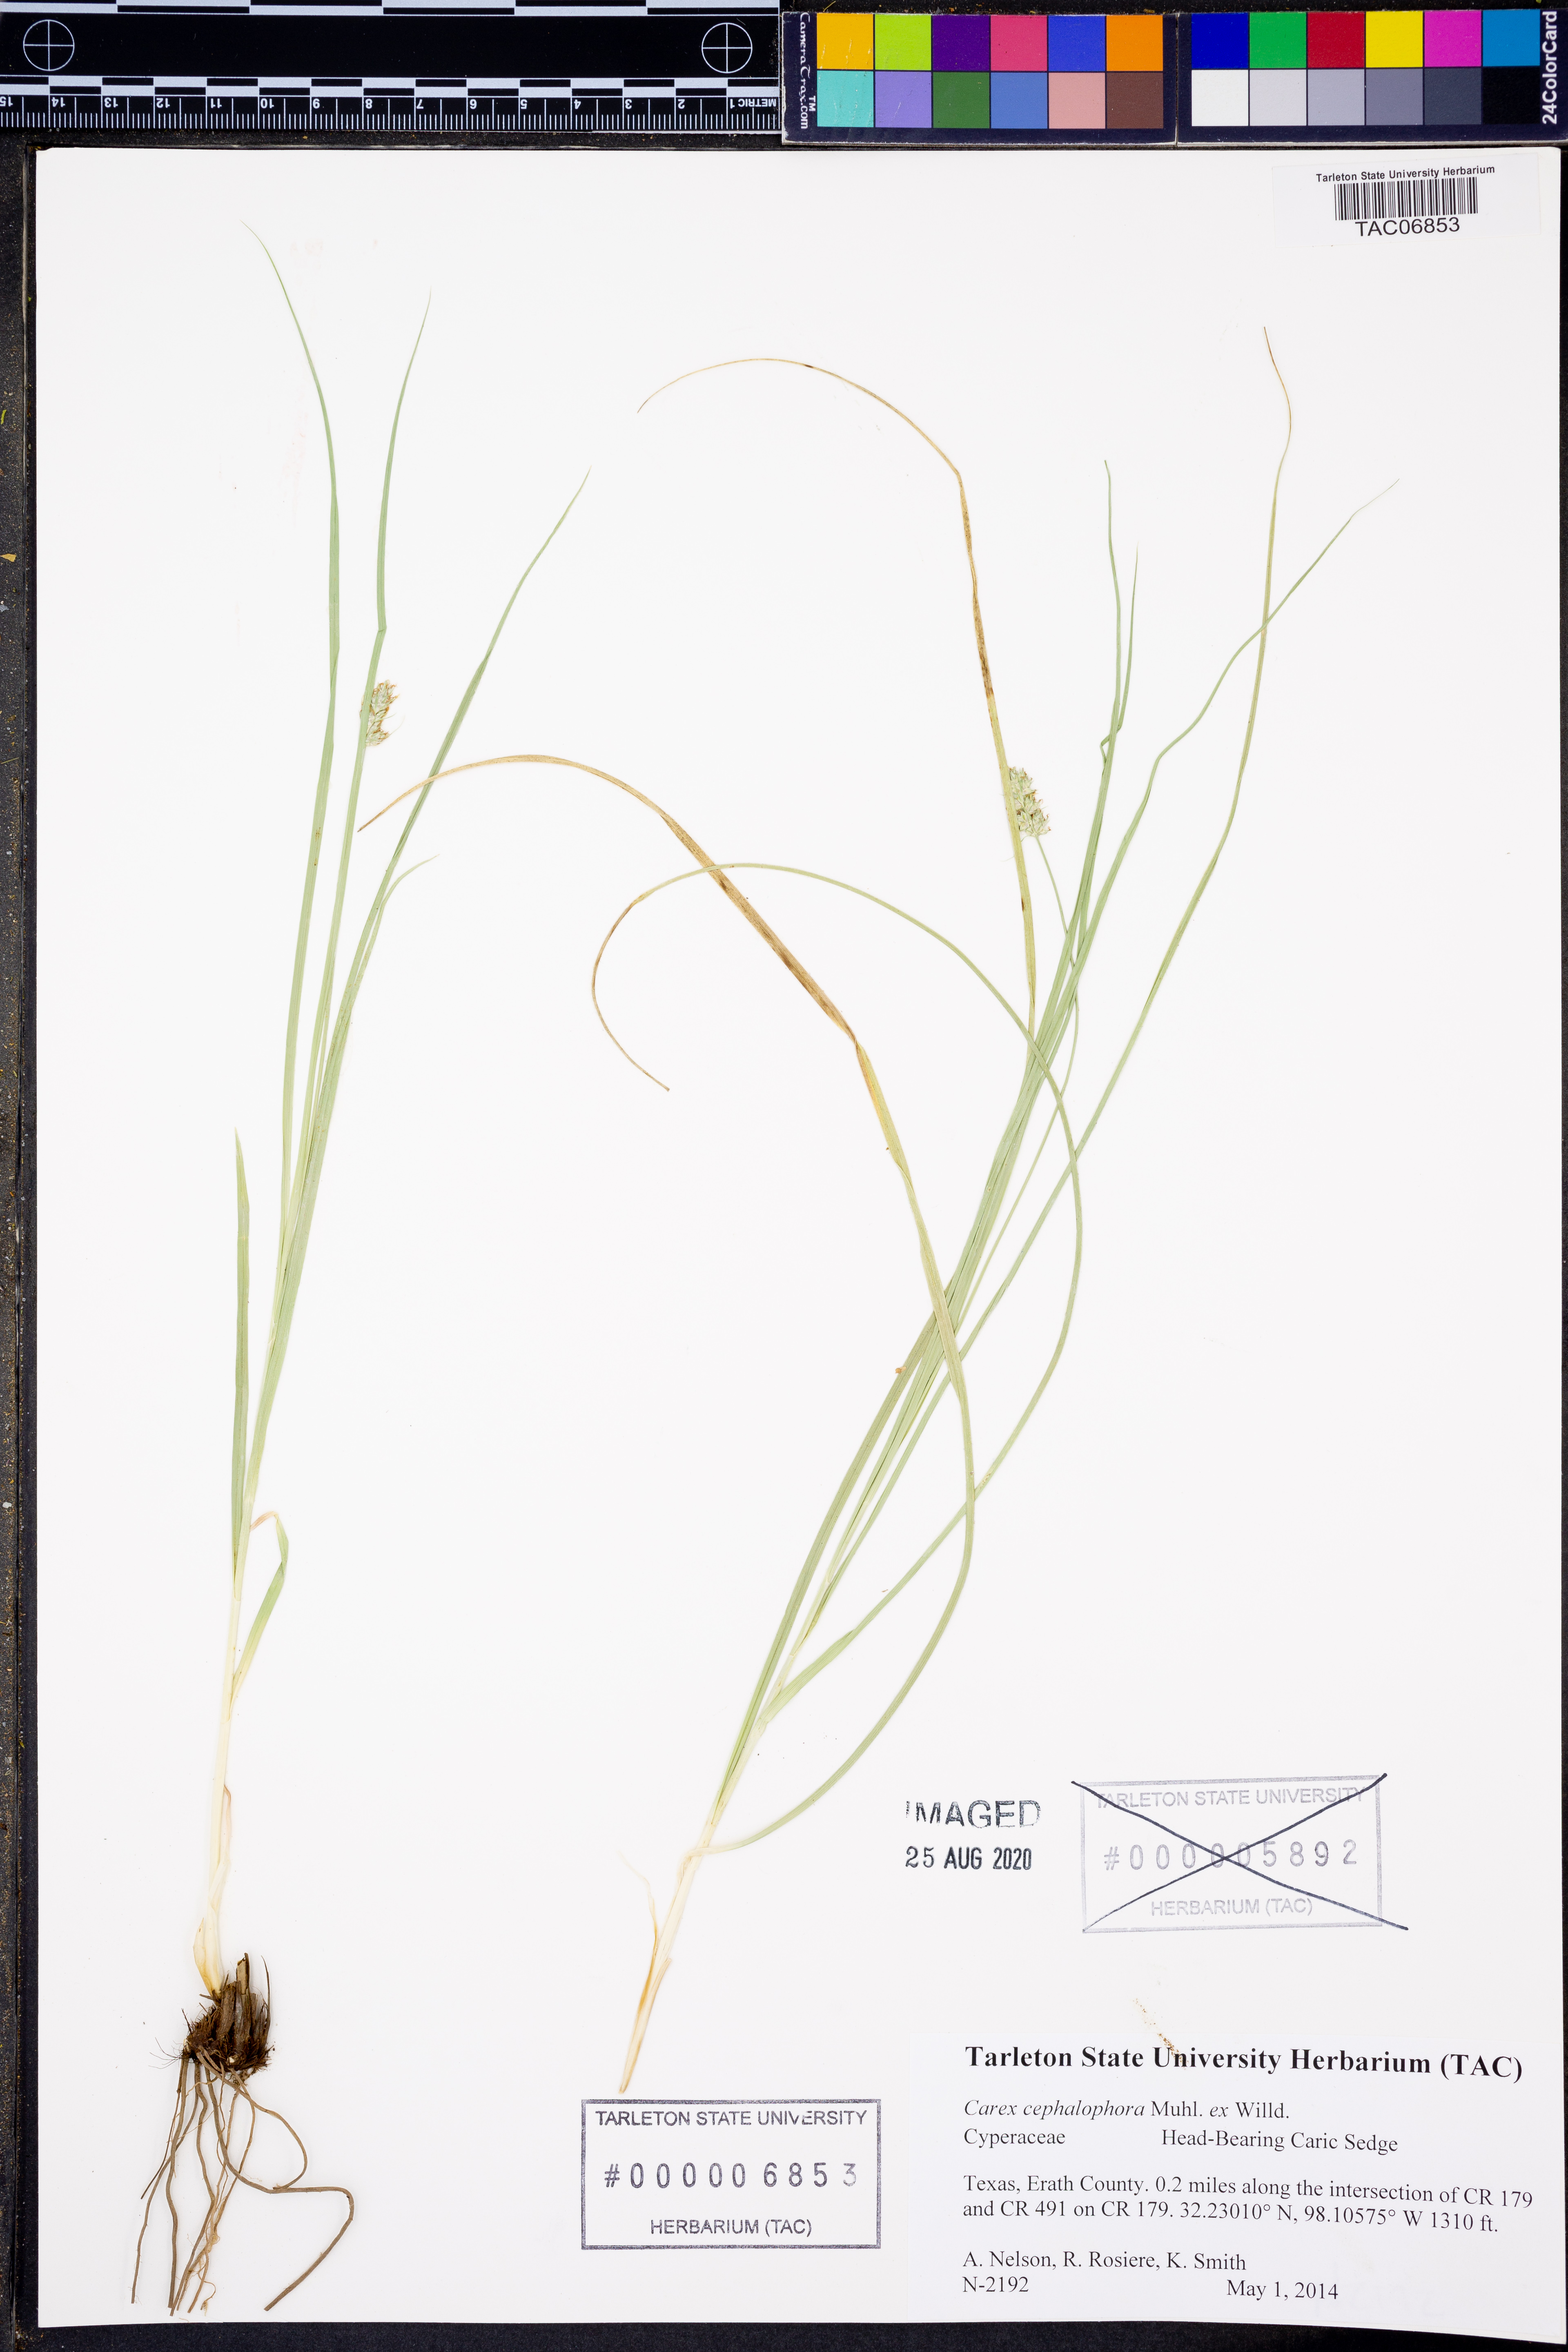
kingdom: Plantae
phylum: Tracheophyta
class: Liliopsida
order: Poales
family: Cyperaceae
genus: Carex
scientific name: Carex cephalophora
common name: Oval-headed sedge
